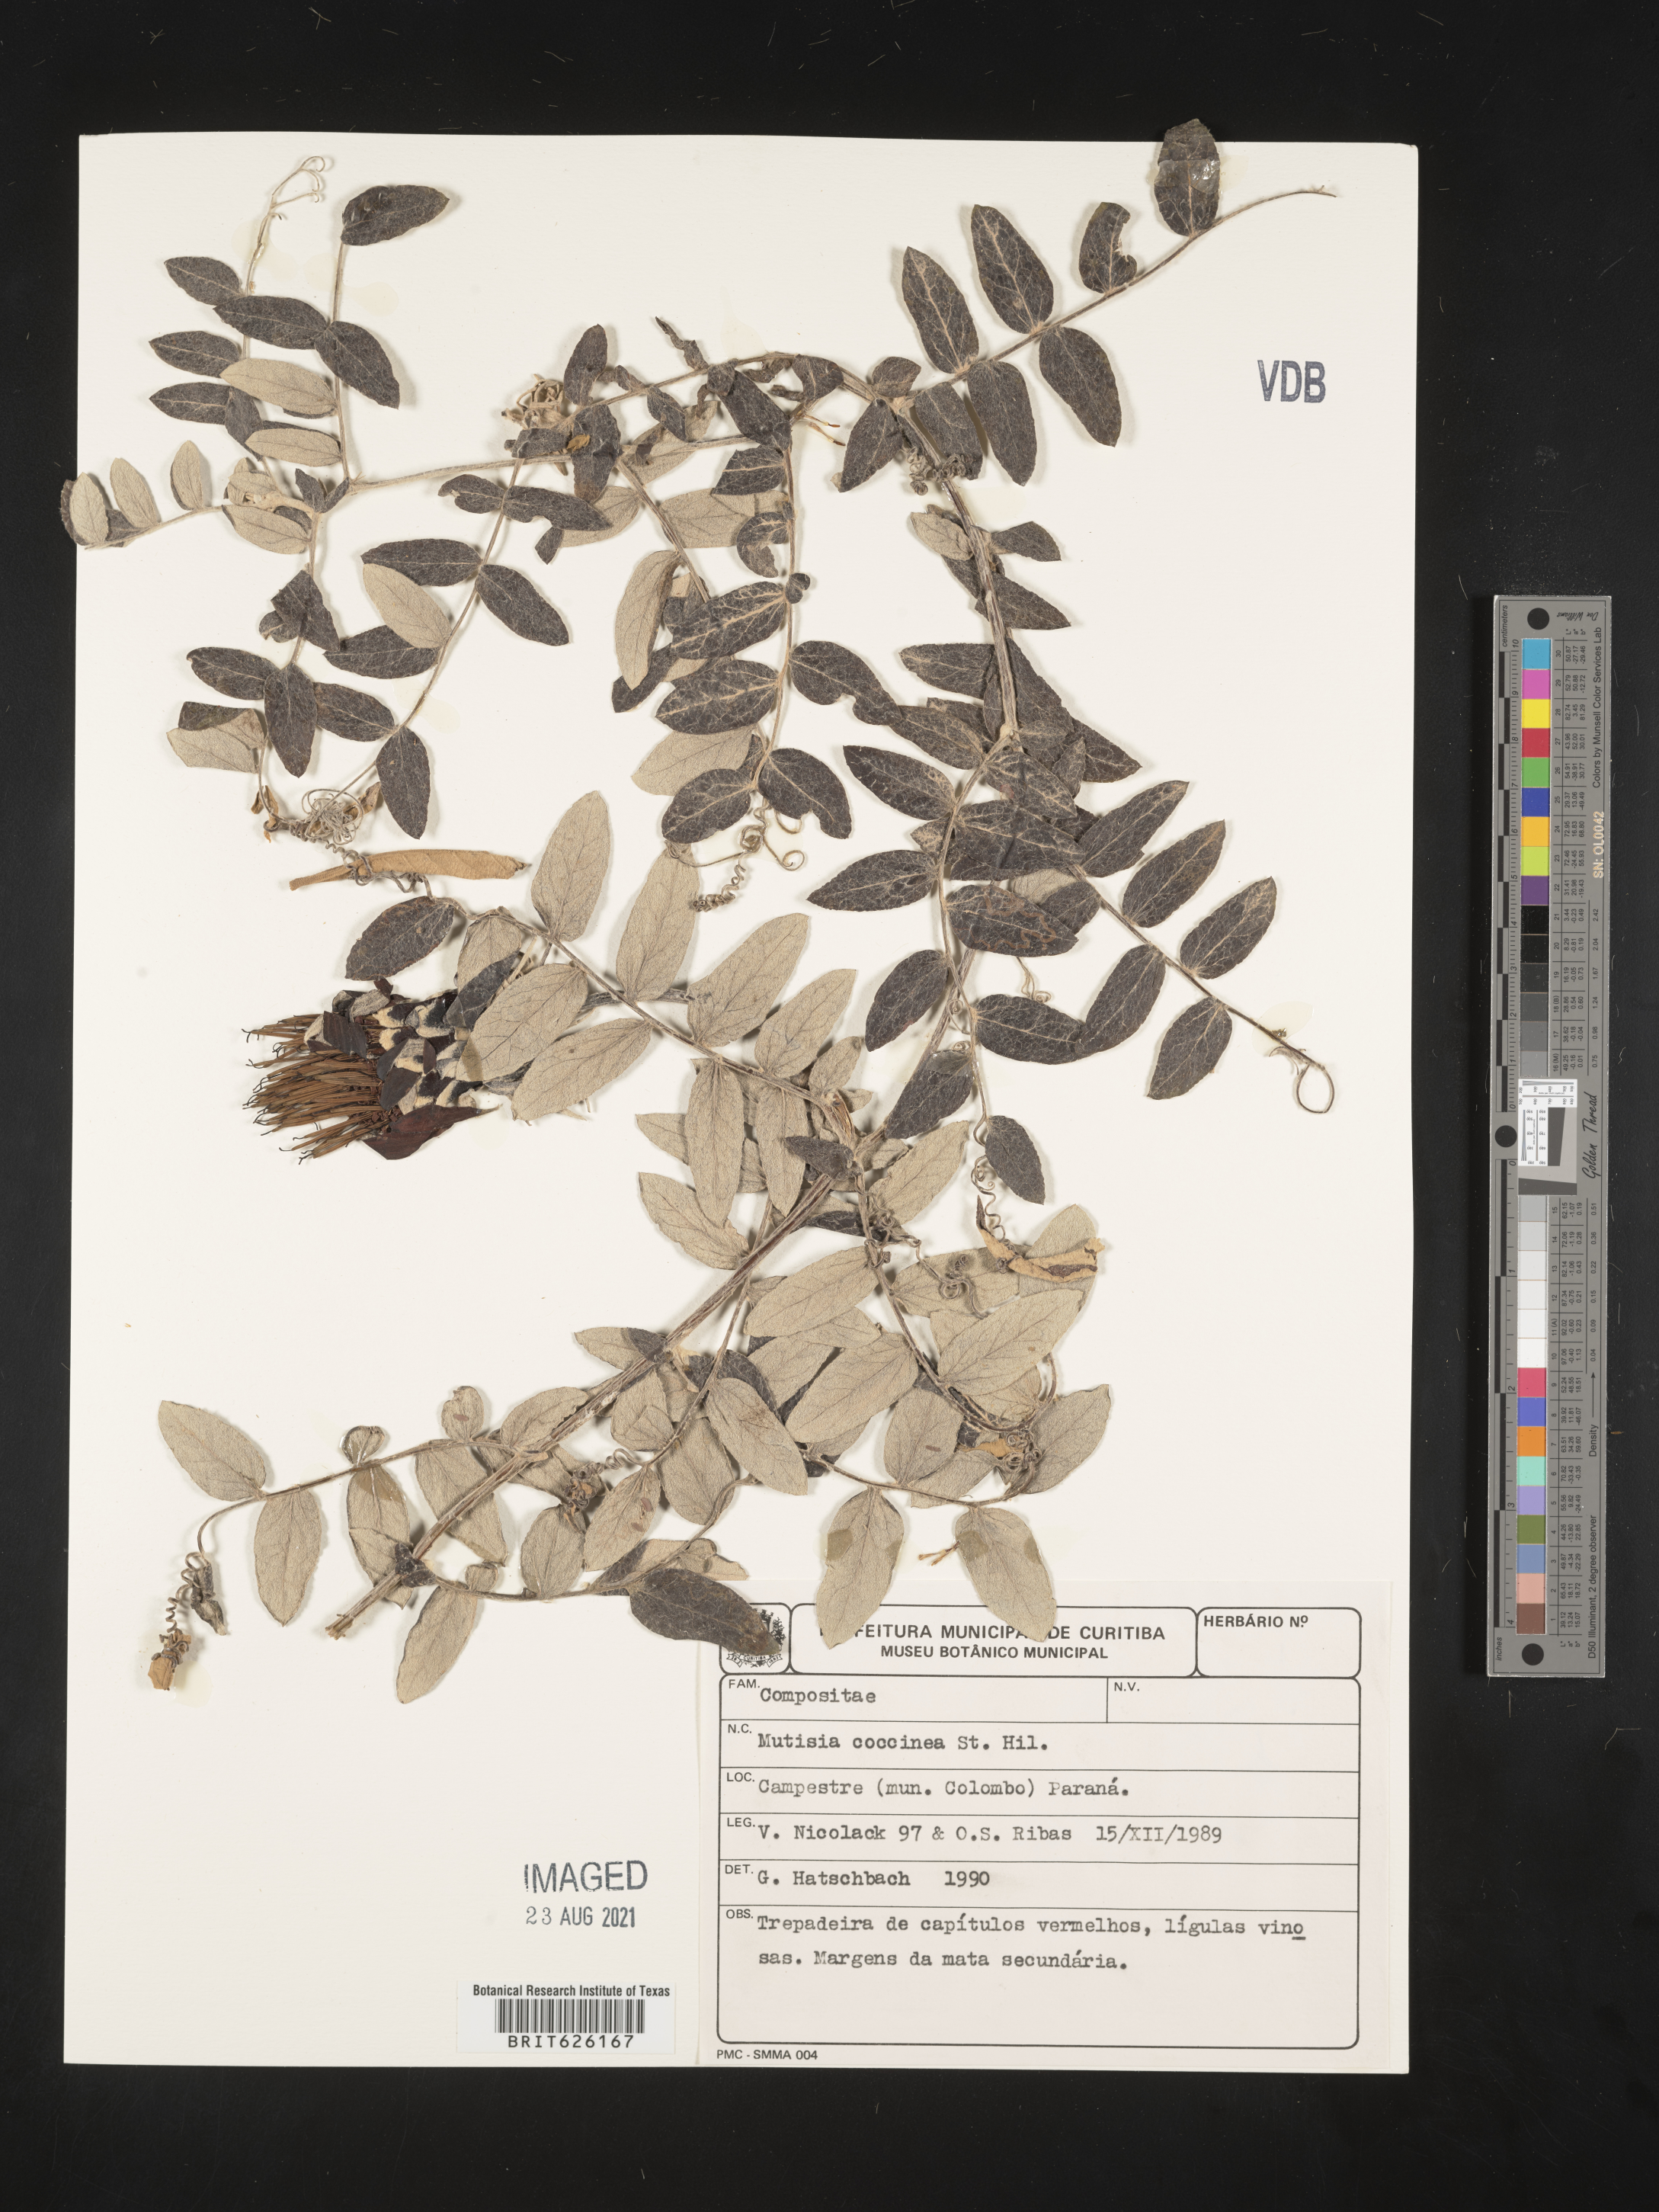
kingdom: Plantae
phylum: Tracheophyta
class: Magnoliopsida
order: Asterales
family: Asteraceae
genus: Mutisia
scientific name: Mutisia coccinea
